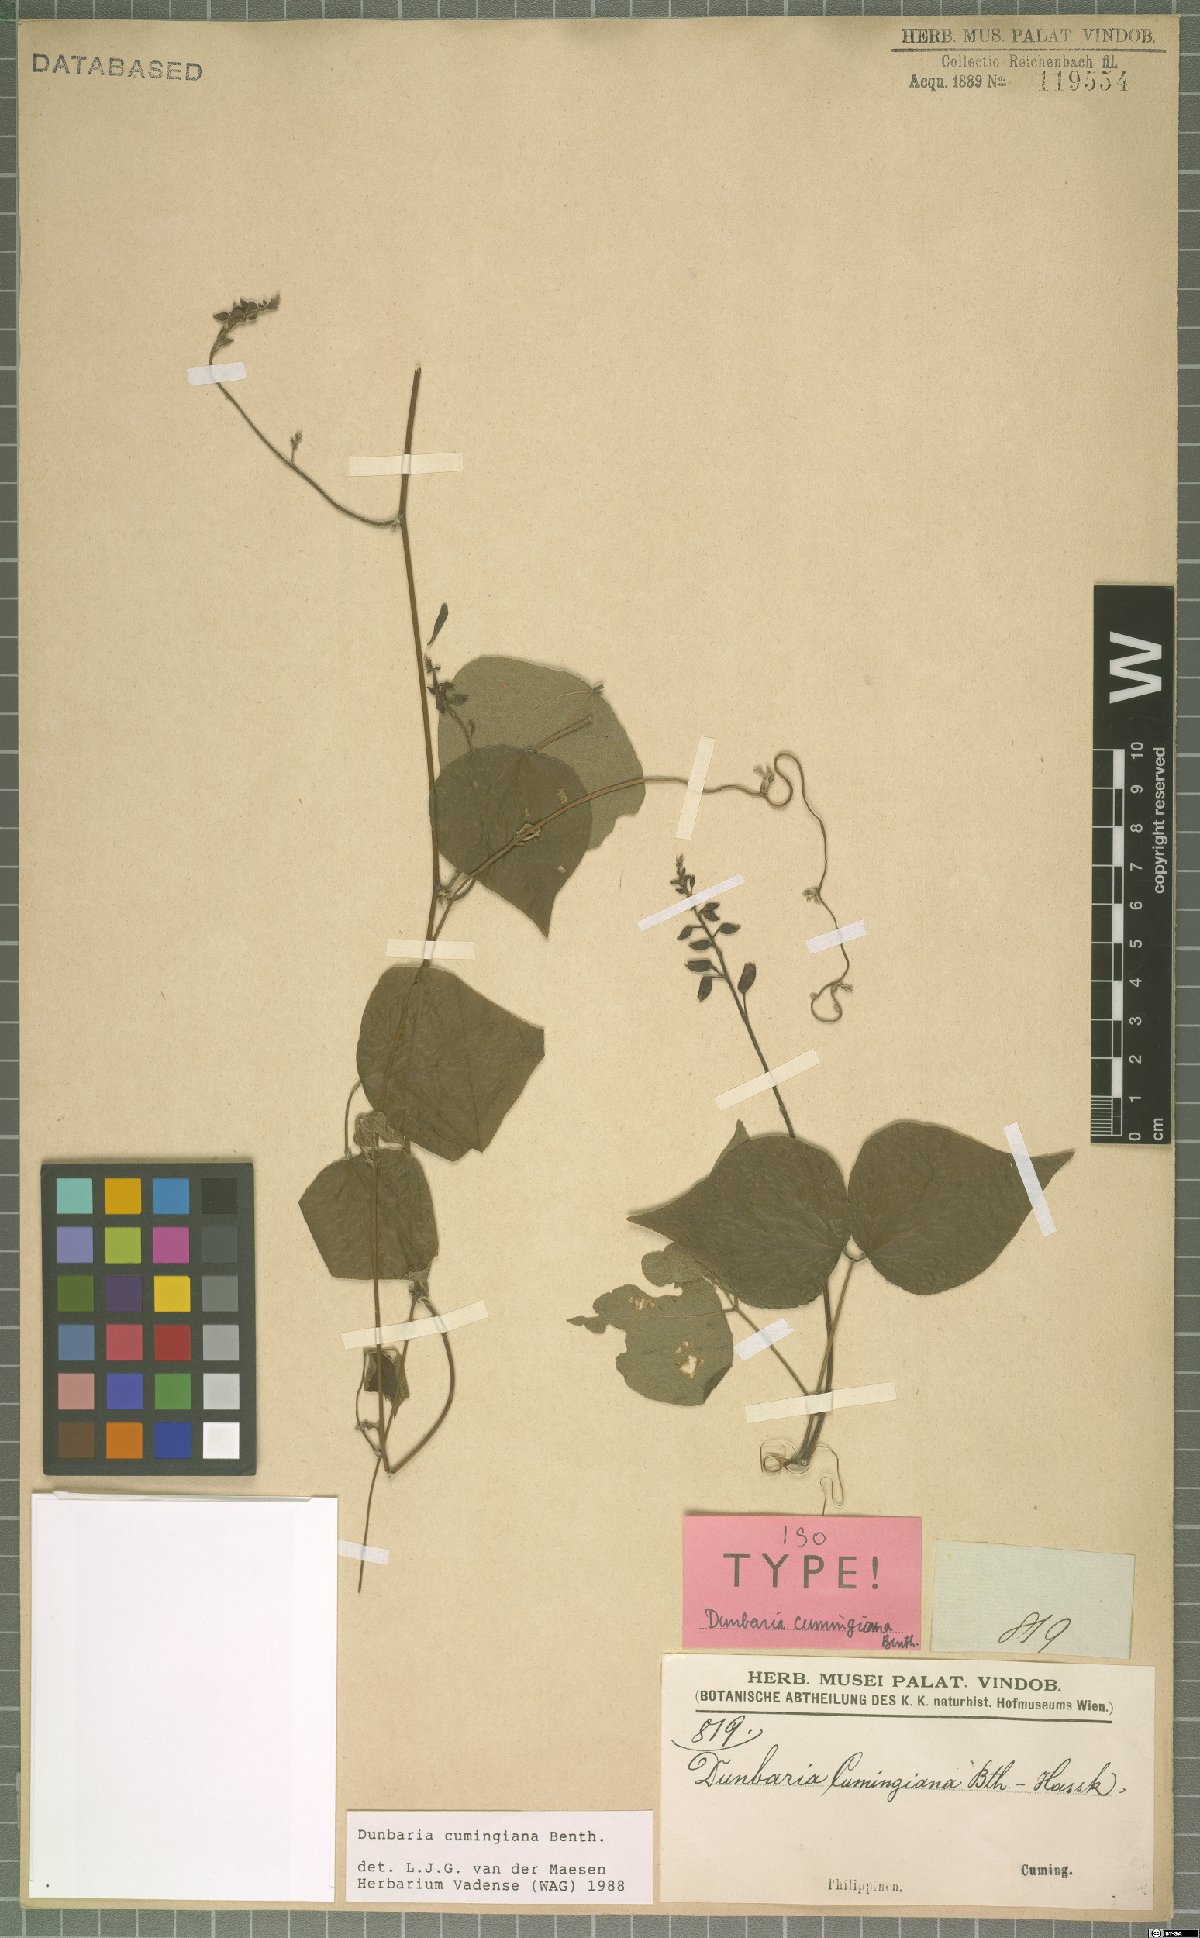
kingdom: Plantae
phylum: Tracheophyta
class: Magnoliopsida
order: Fabales
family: Fabaceae
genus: Dunbaria
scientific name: Dunbaria cumingiana
